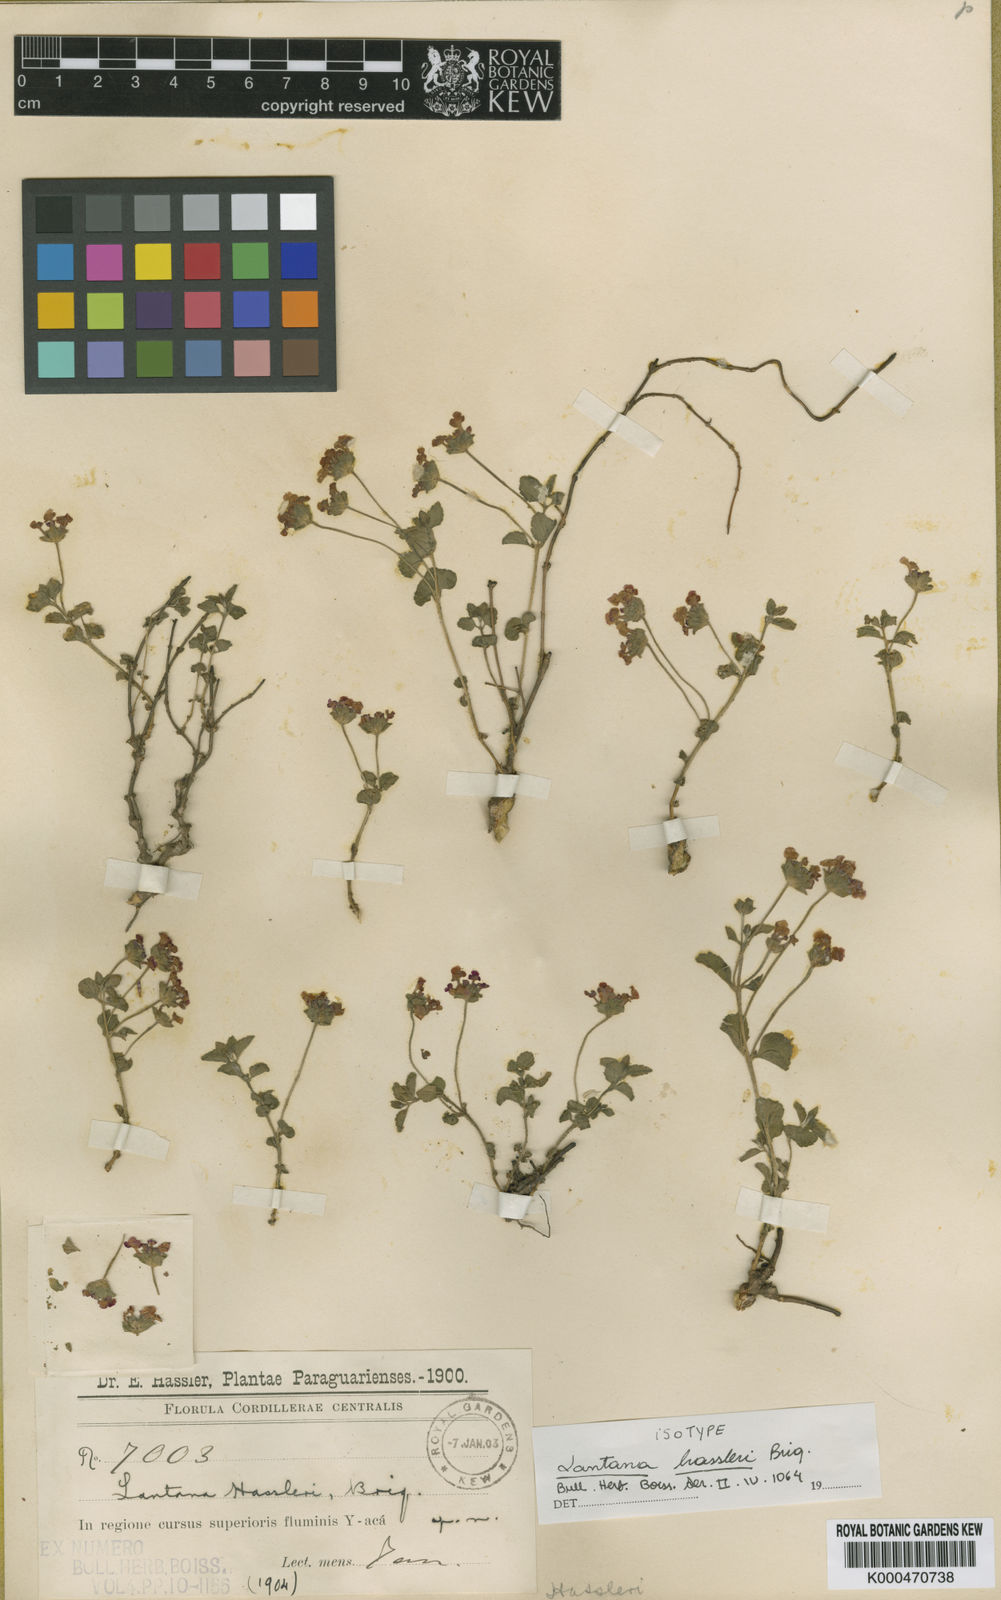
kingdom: Plantae
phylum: Tracheophyta
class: Magnoliopsida
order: Lamiales
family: Verbenaceae
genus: Lippia
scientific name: Lippia pusilla
